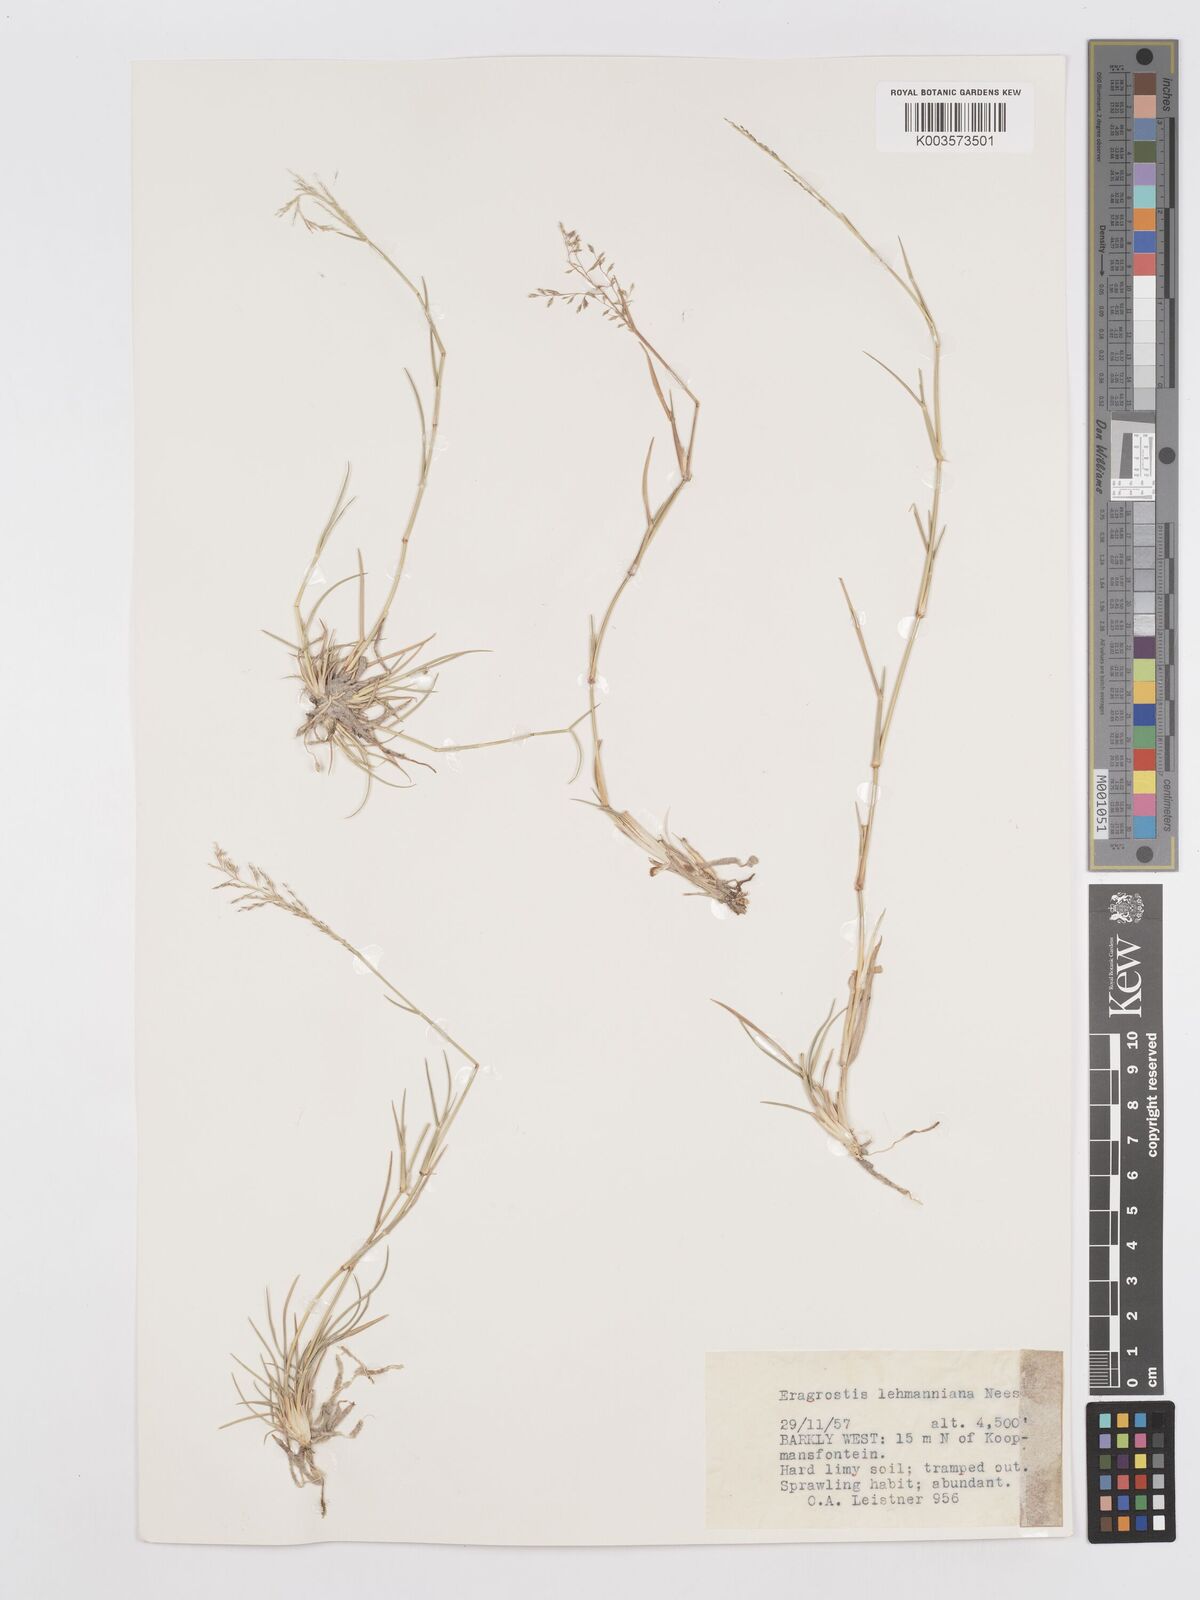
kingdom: Plantae
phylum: Tracheophyta
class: Liliopsida
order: Poales
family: Poaceae
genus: Eragrostis
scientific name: Eragrostis lehmanniana
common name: Lehmann lovegrass
